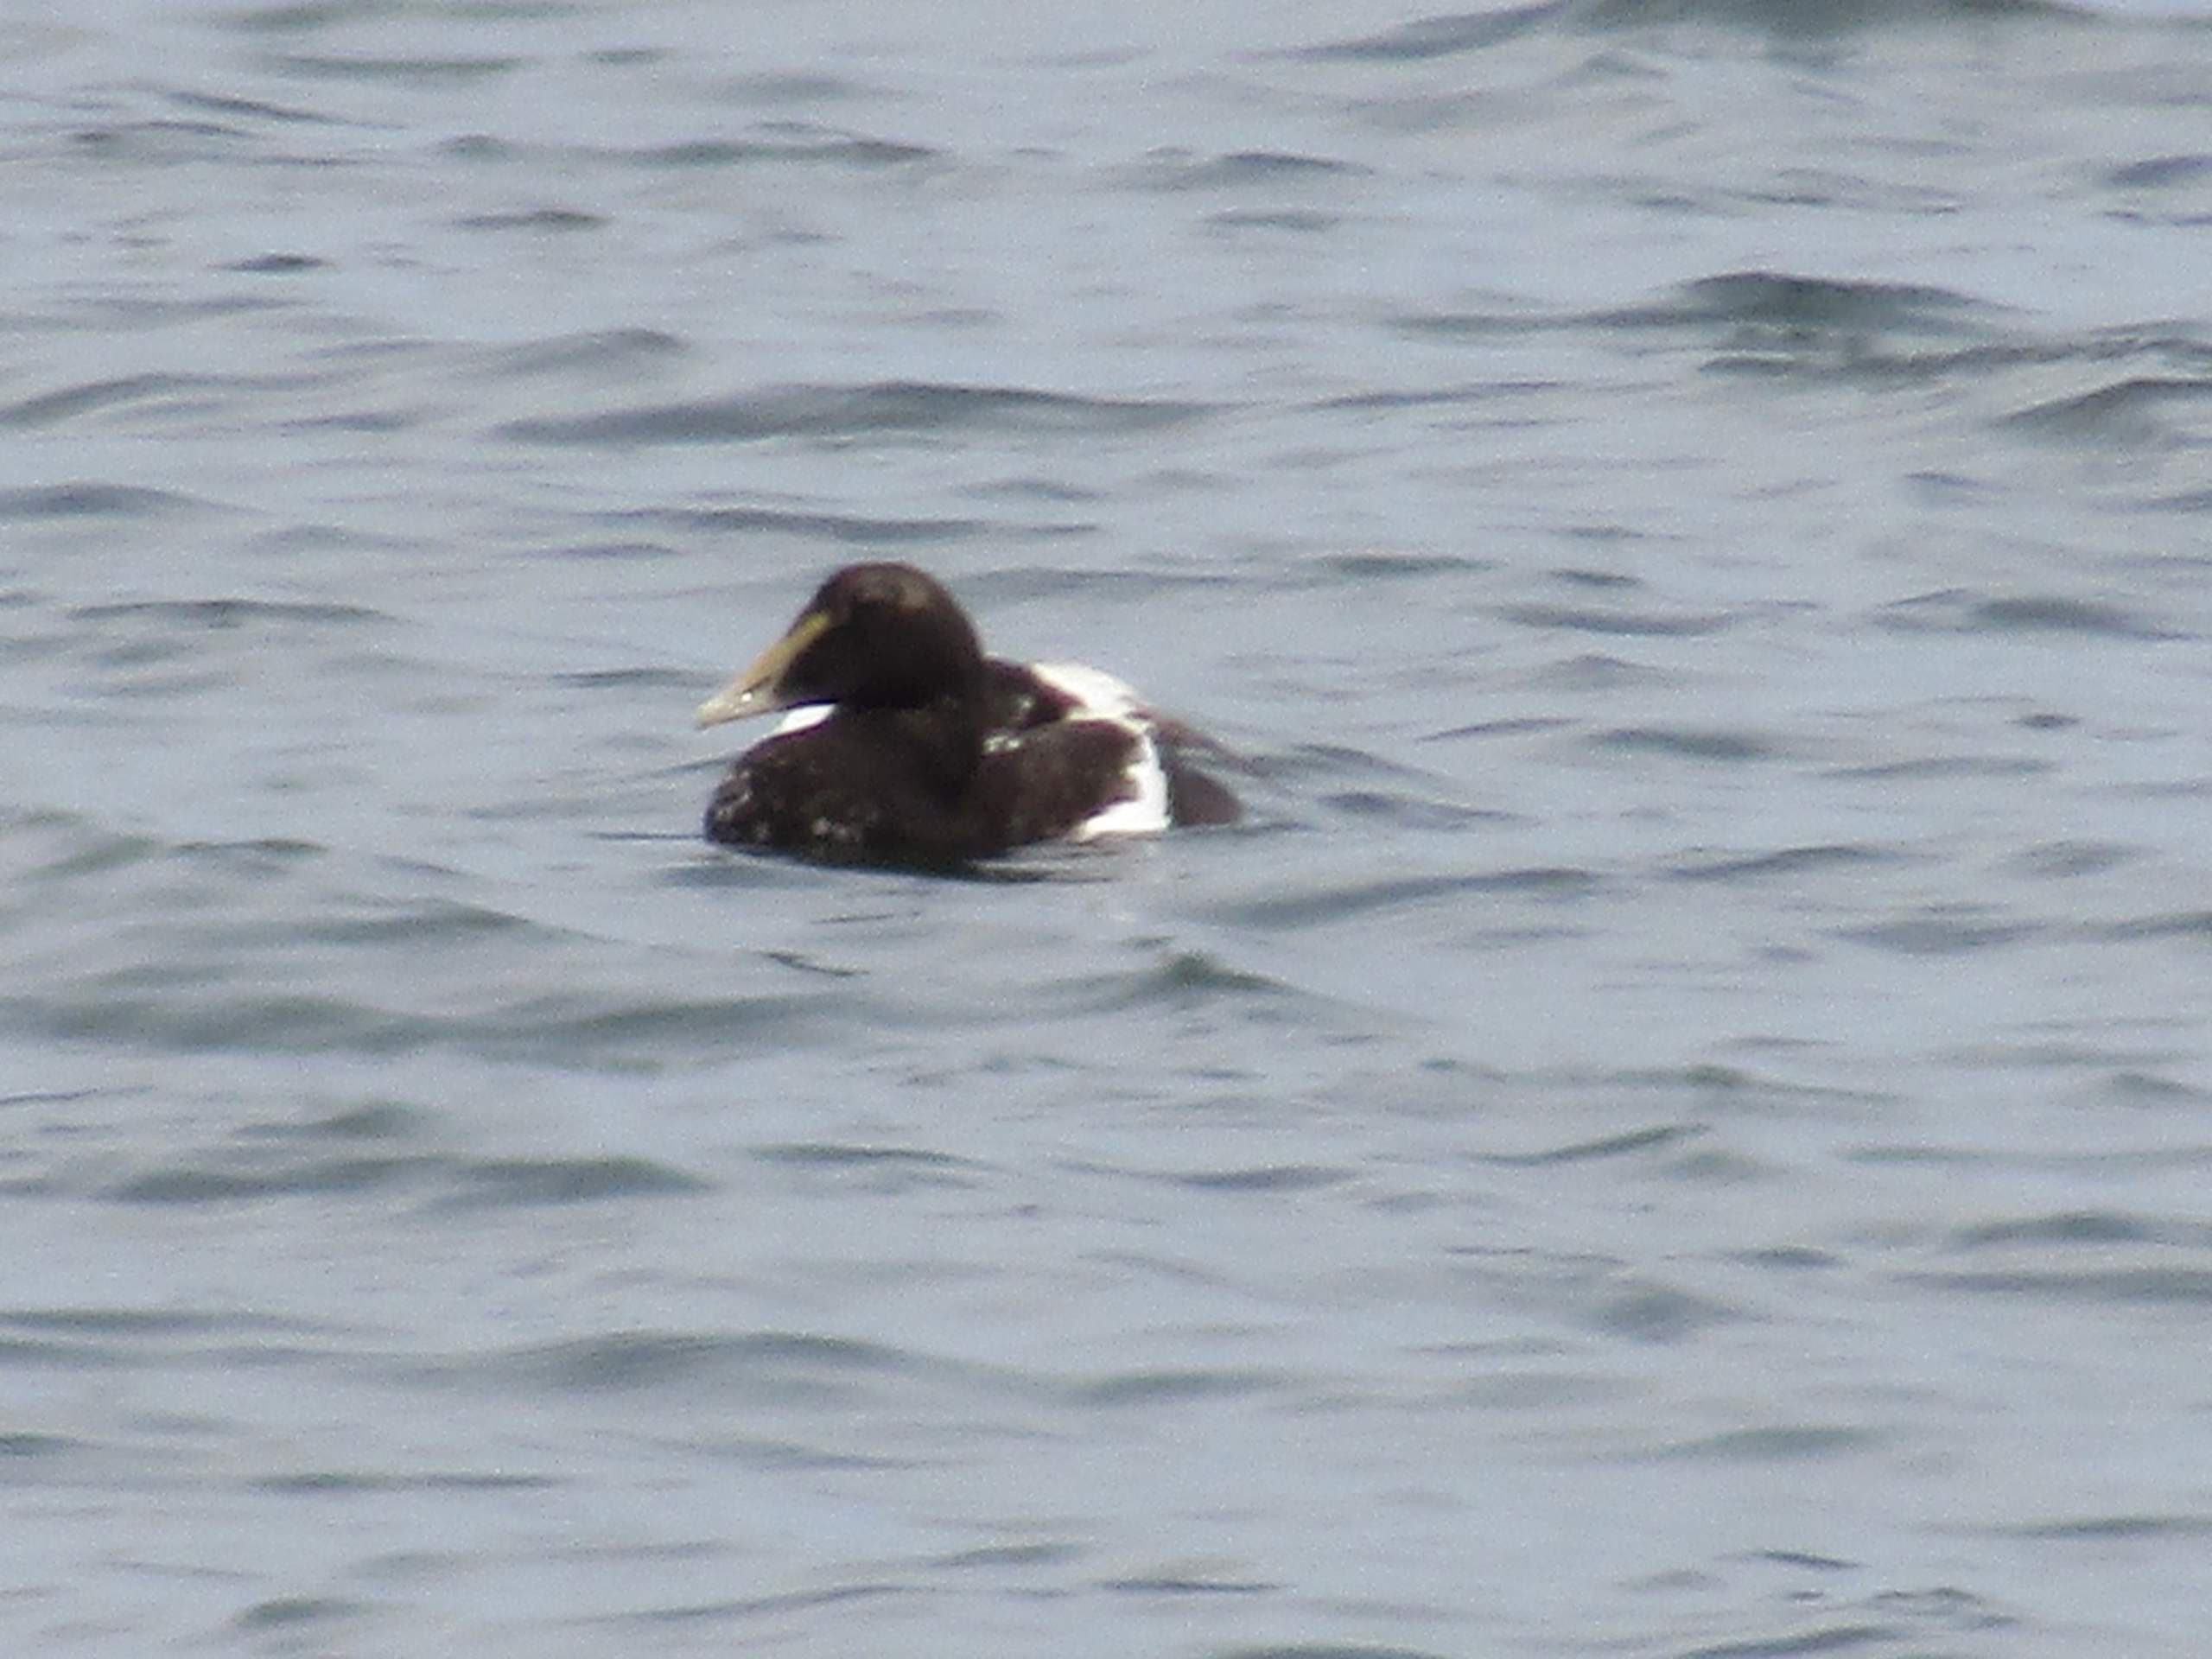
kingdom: Animalia
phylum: Chordata
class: Aves
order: Anseriformes
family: Anatidae
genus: Somateria
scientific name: Somateria mollissima
